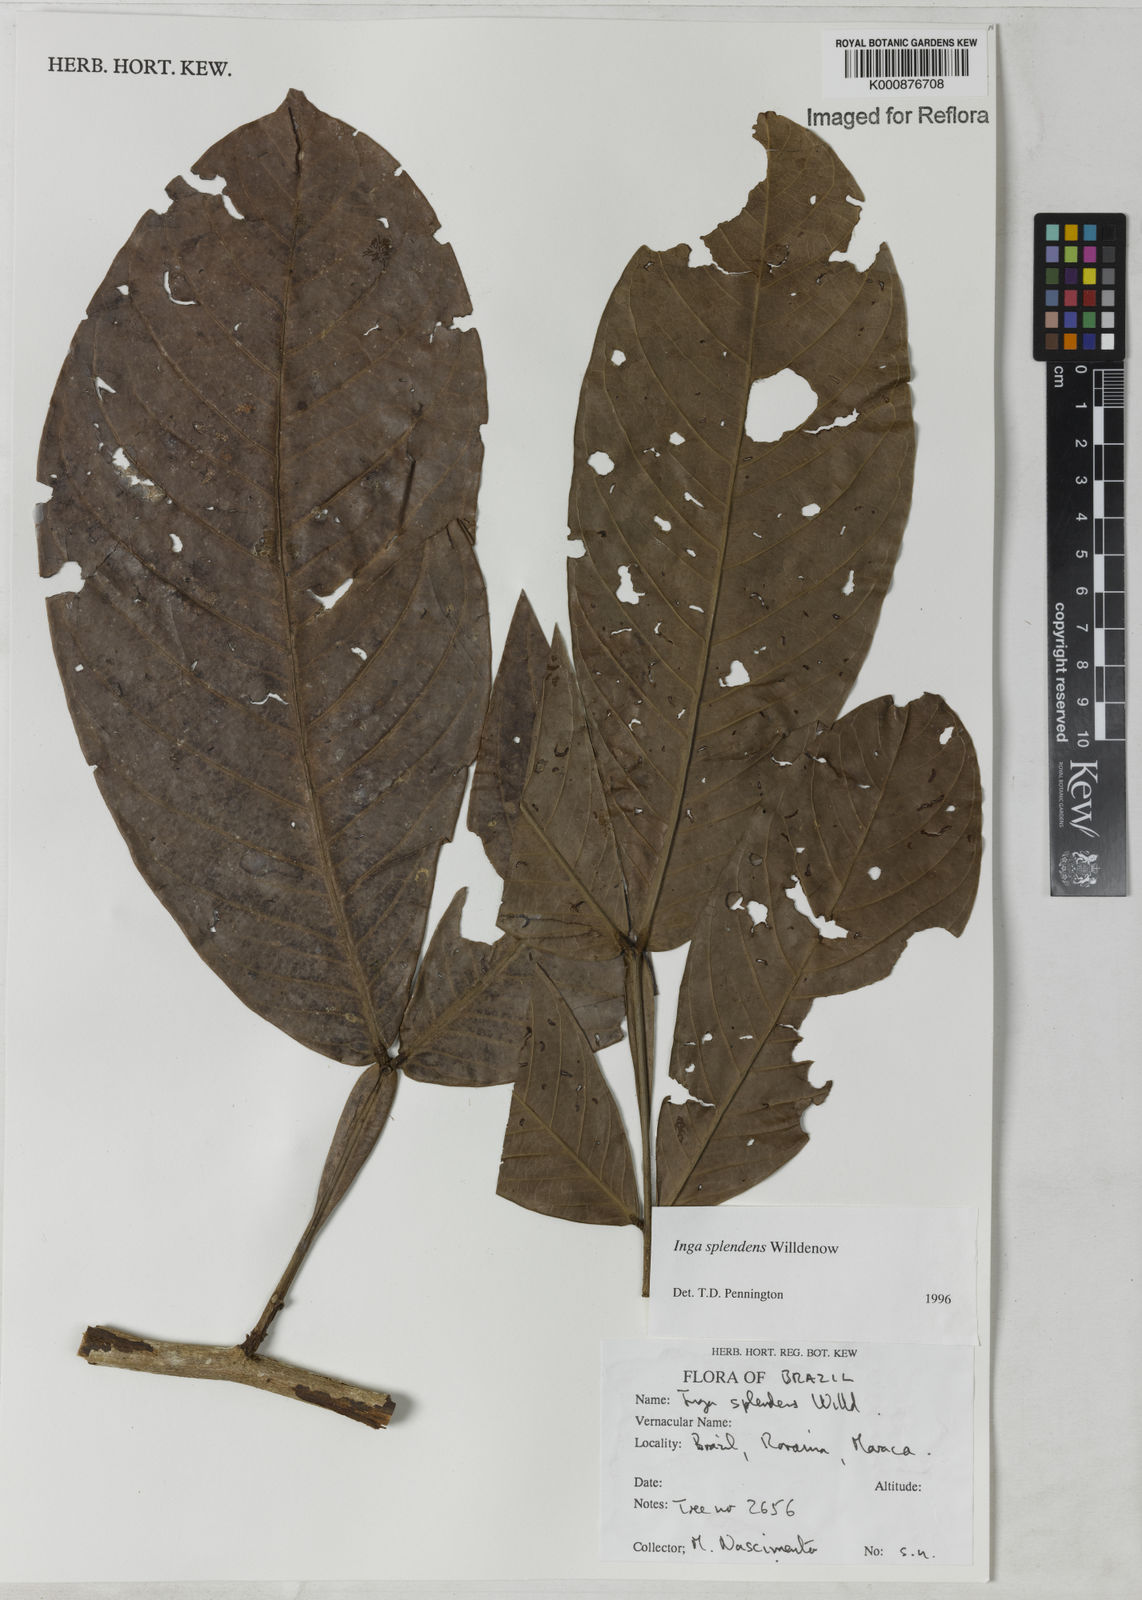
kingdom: Plantae
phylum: Tracheophyta
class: Magnoliopsida
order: Fabales
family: Fabaceae
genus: Inga
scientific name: Inga splendens
